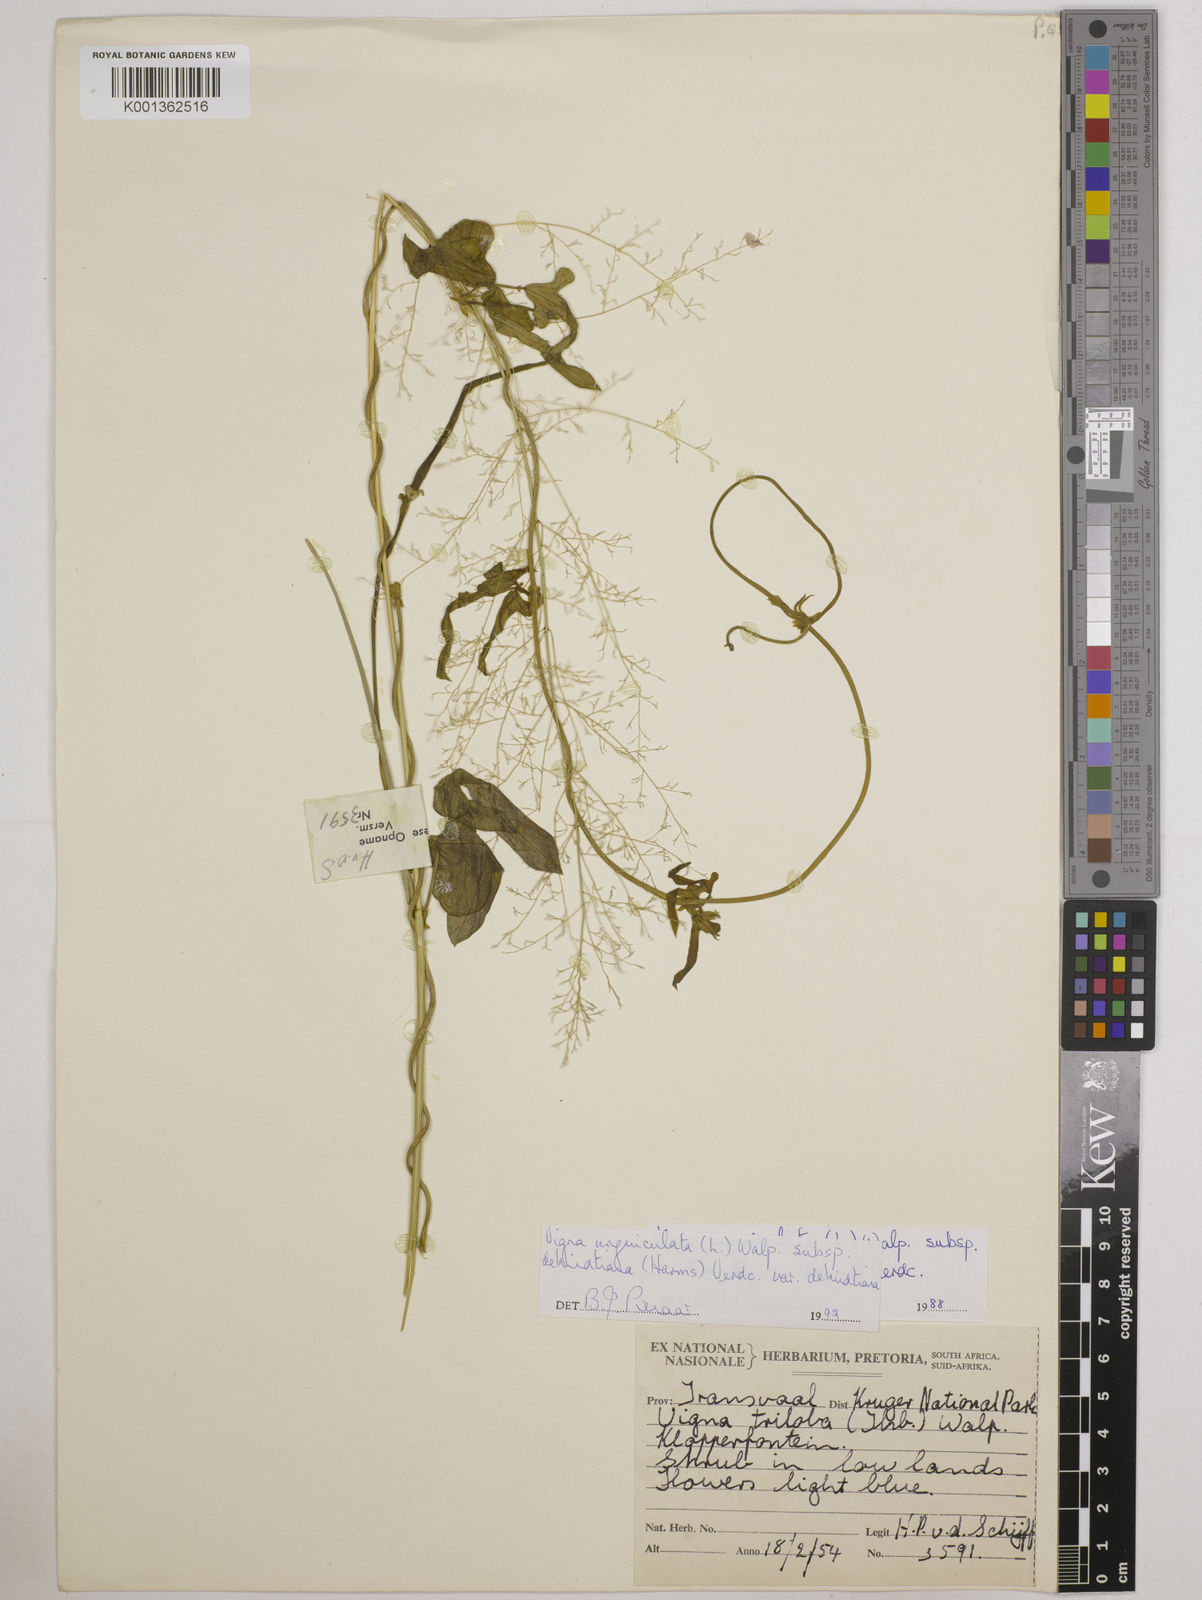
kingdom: Plantae
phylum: Tracheophyta
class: Magnoliopsida
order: Fabales
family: Fabaceae
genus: Vigna
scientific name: Vigna unguiculata
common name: Cowpea
